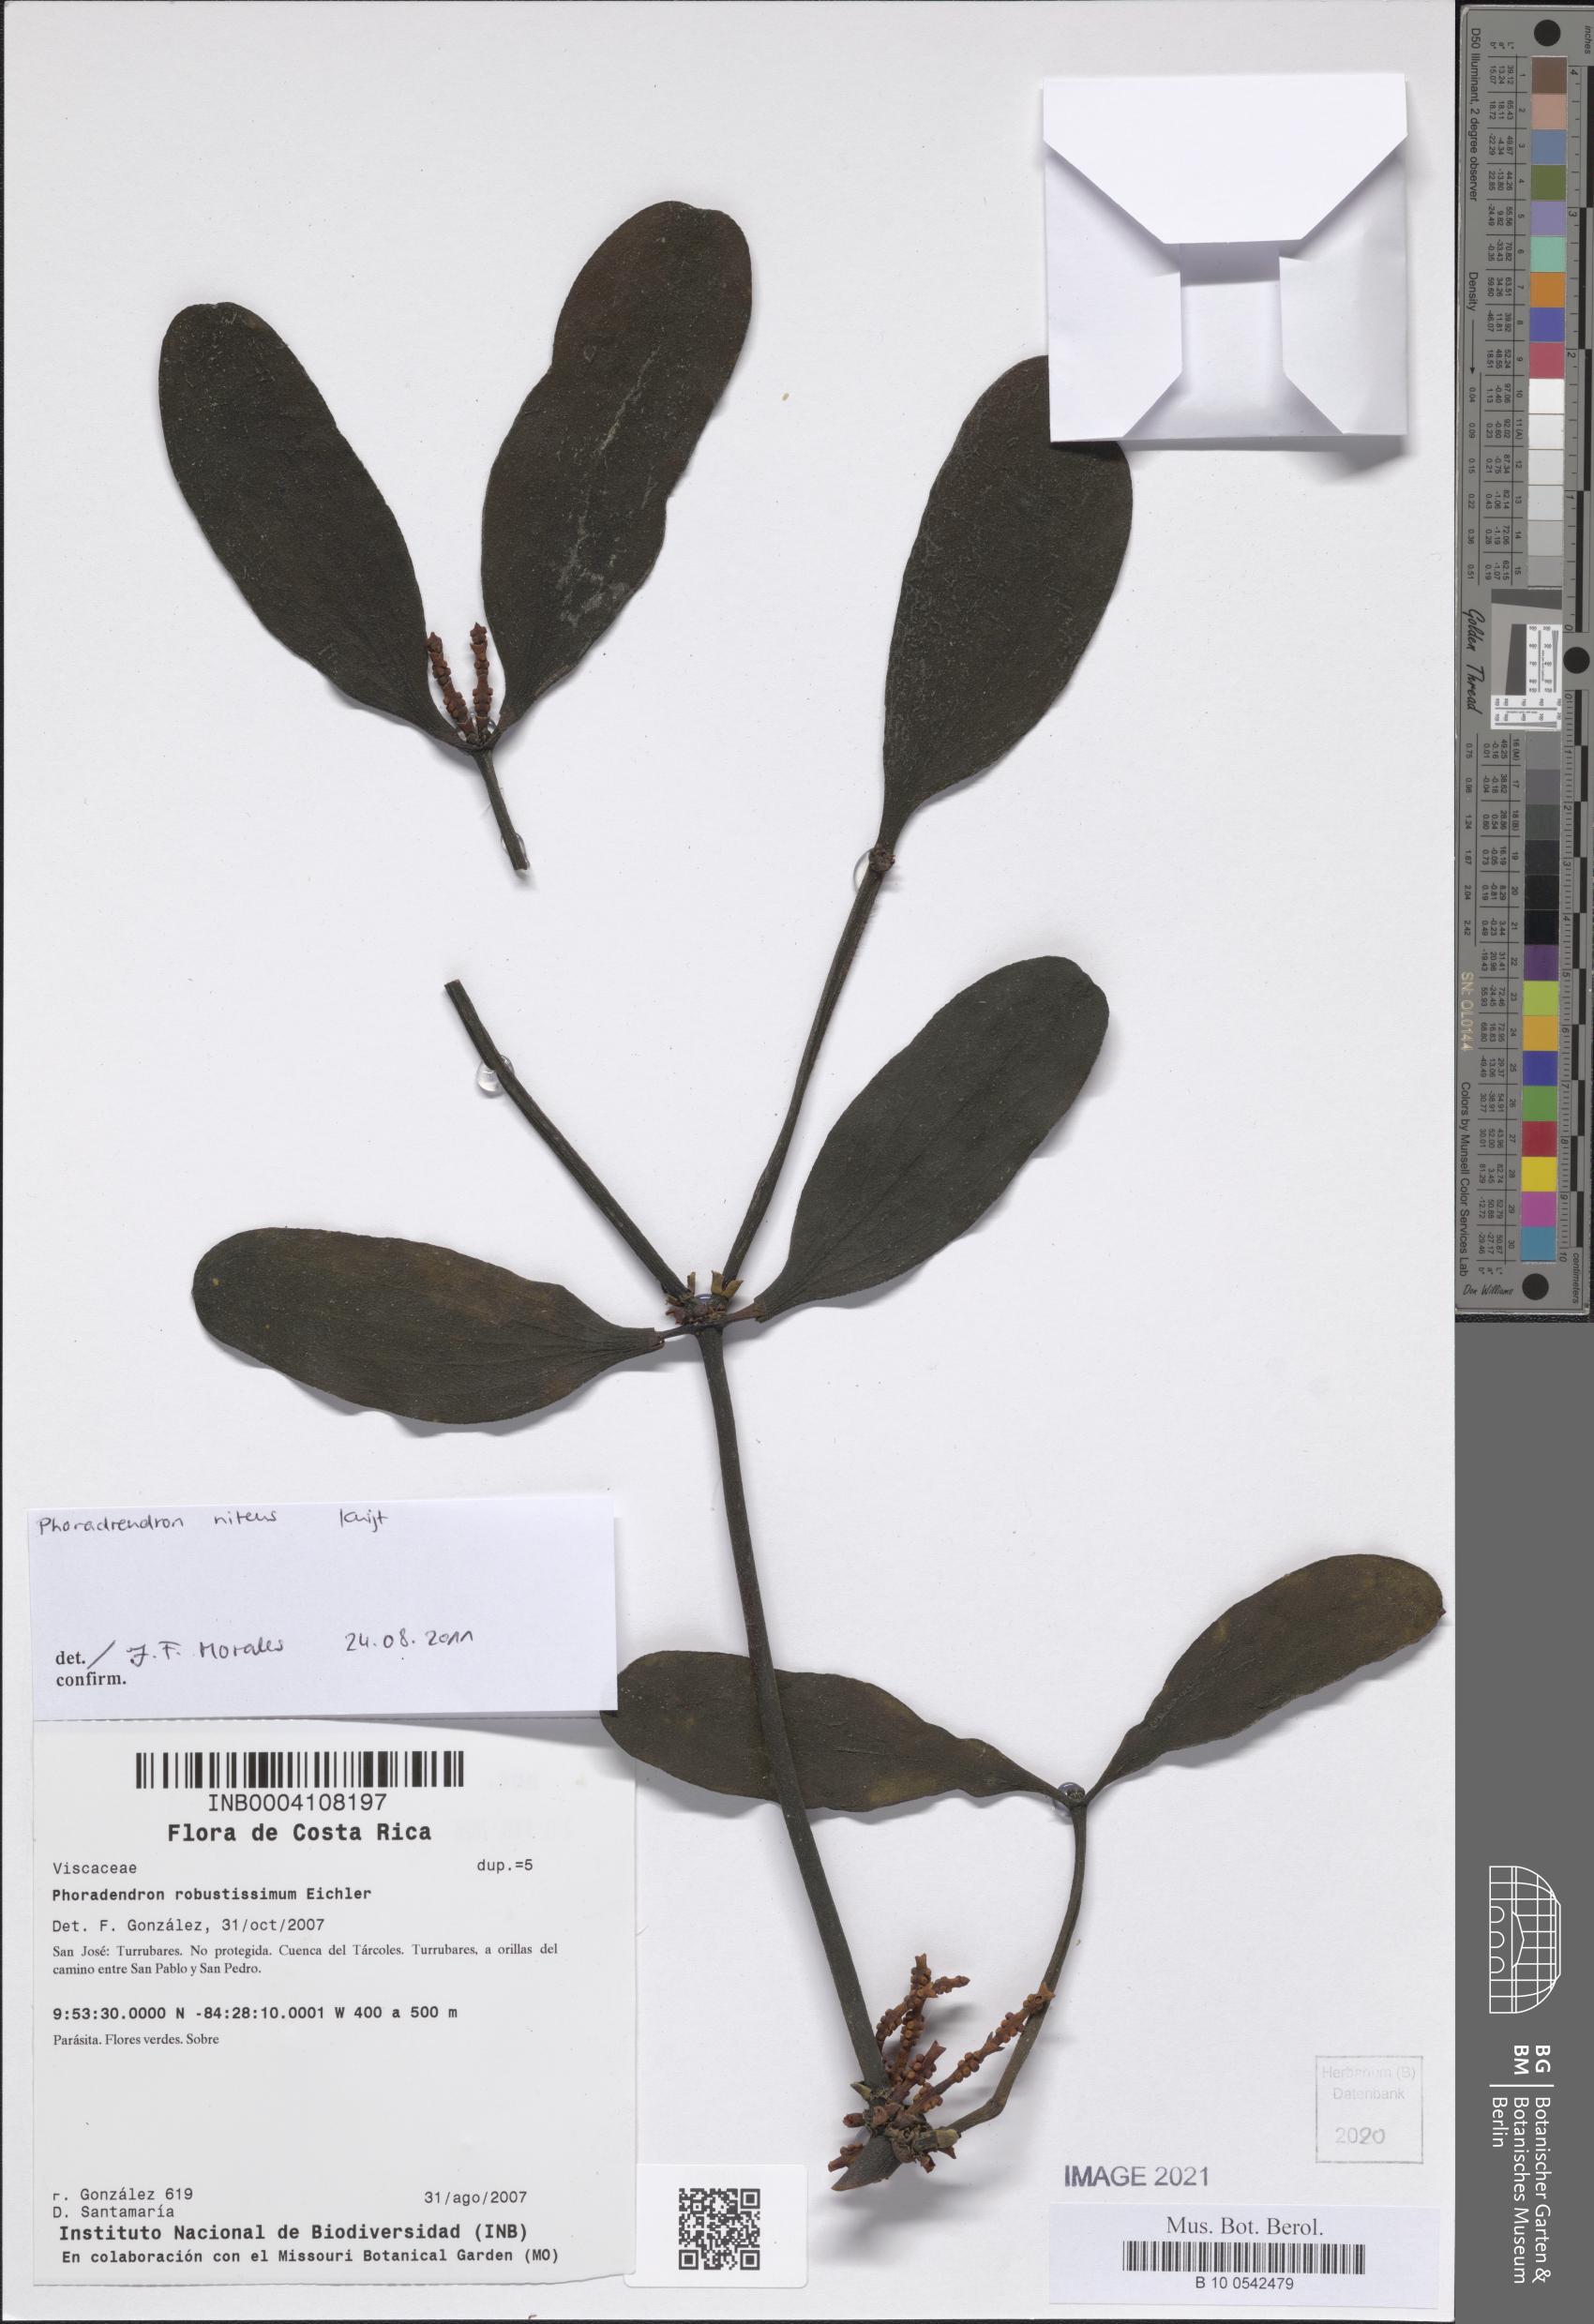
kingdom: Plantae
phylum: Tracheophyta
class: Magnoliopsida
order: Santalales
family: Viscaceae
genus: Phoradendron
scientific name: Phoradendron nitens
